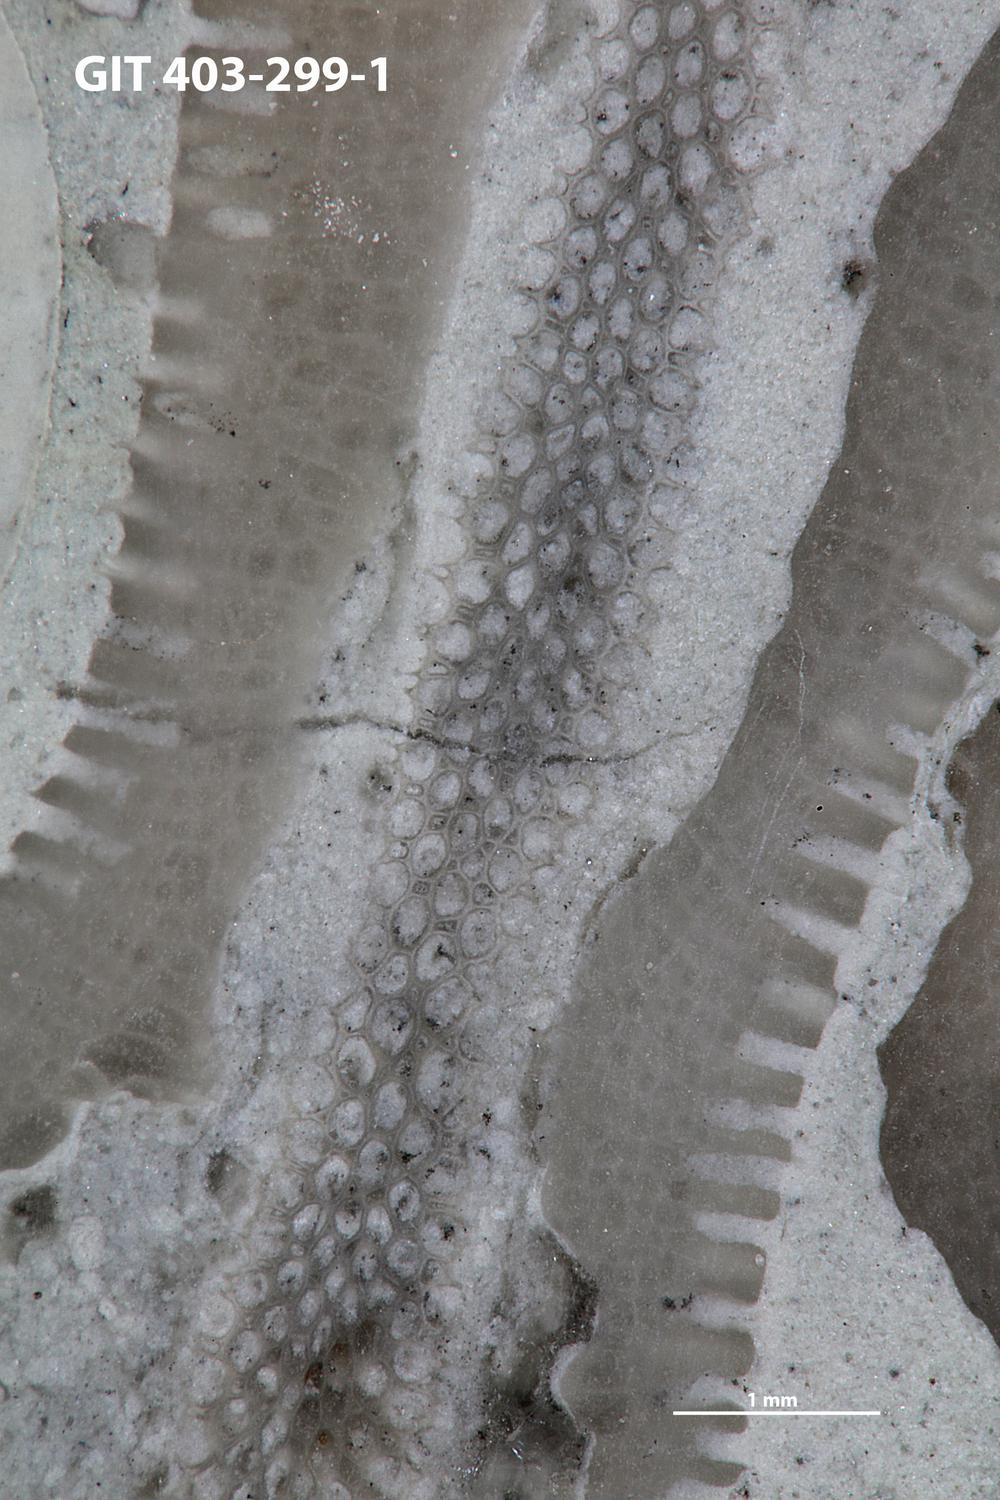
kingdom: Animalia
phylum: Bryozoa
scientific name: Bryozoa
